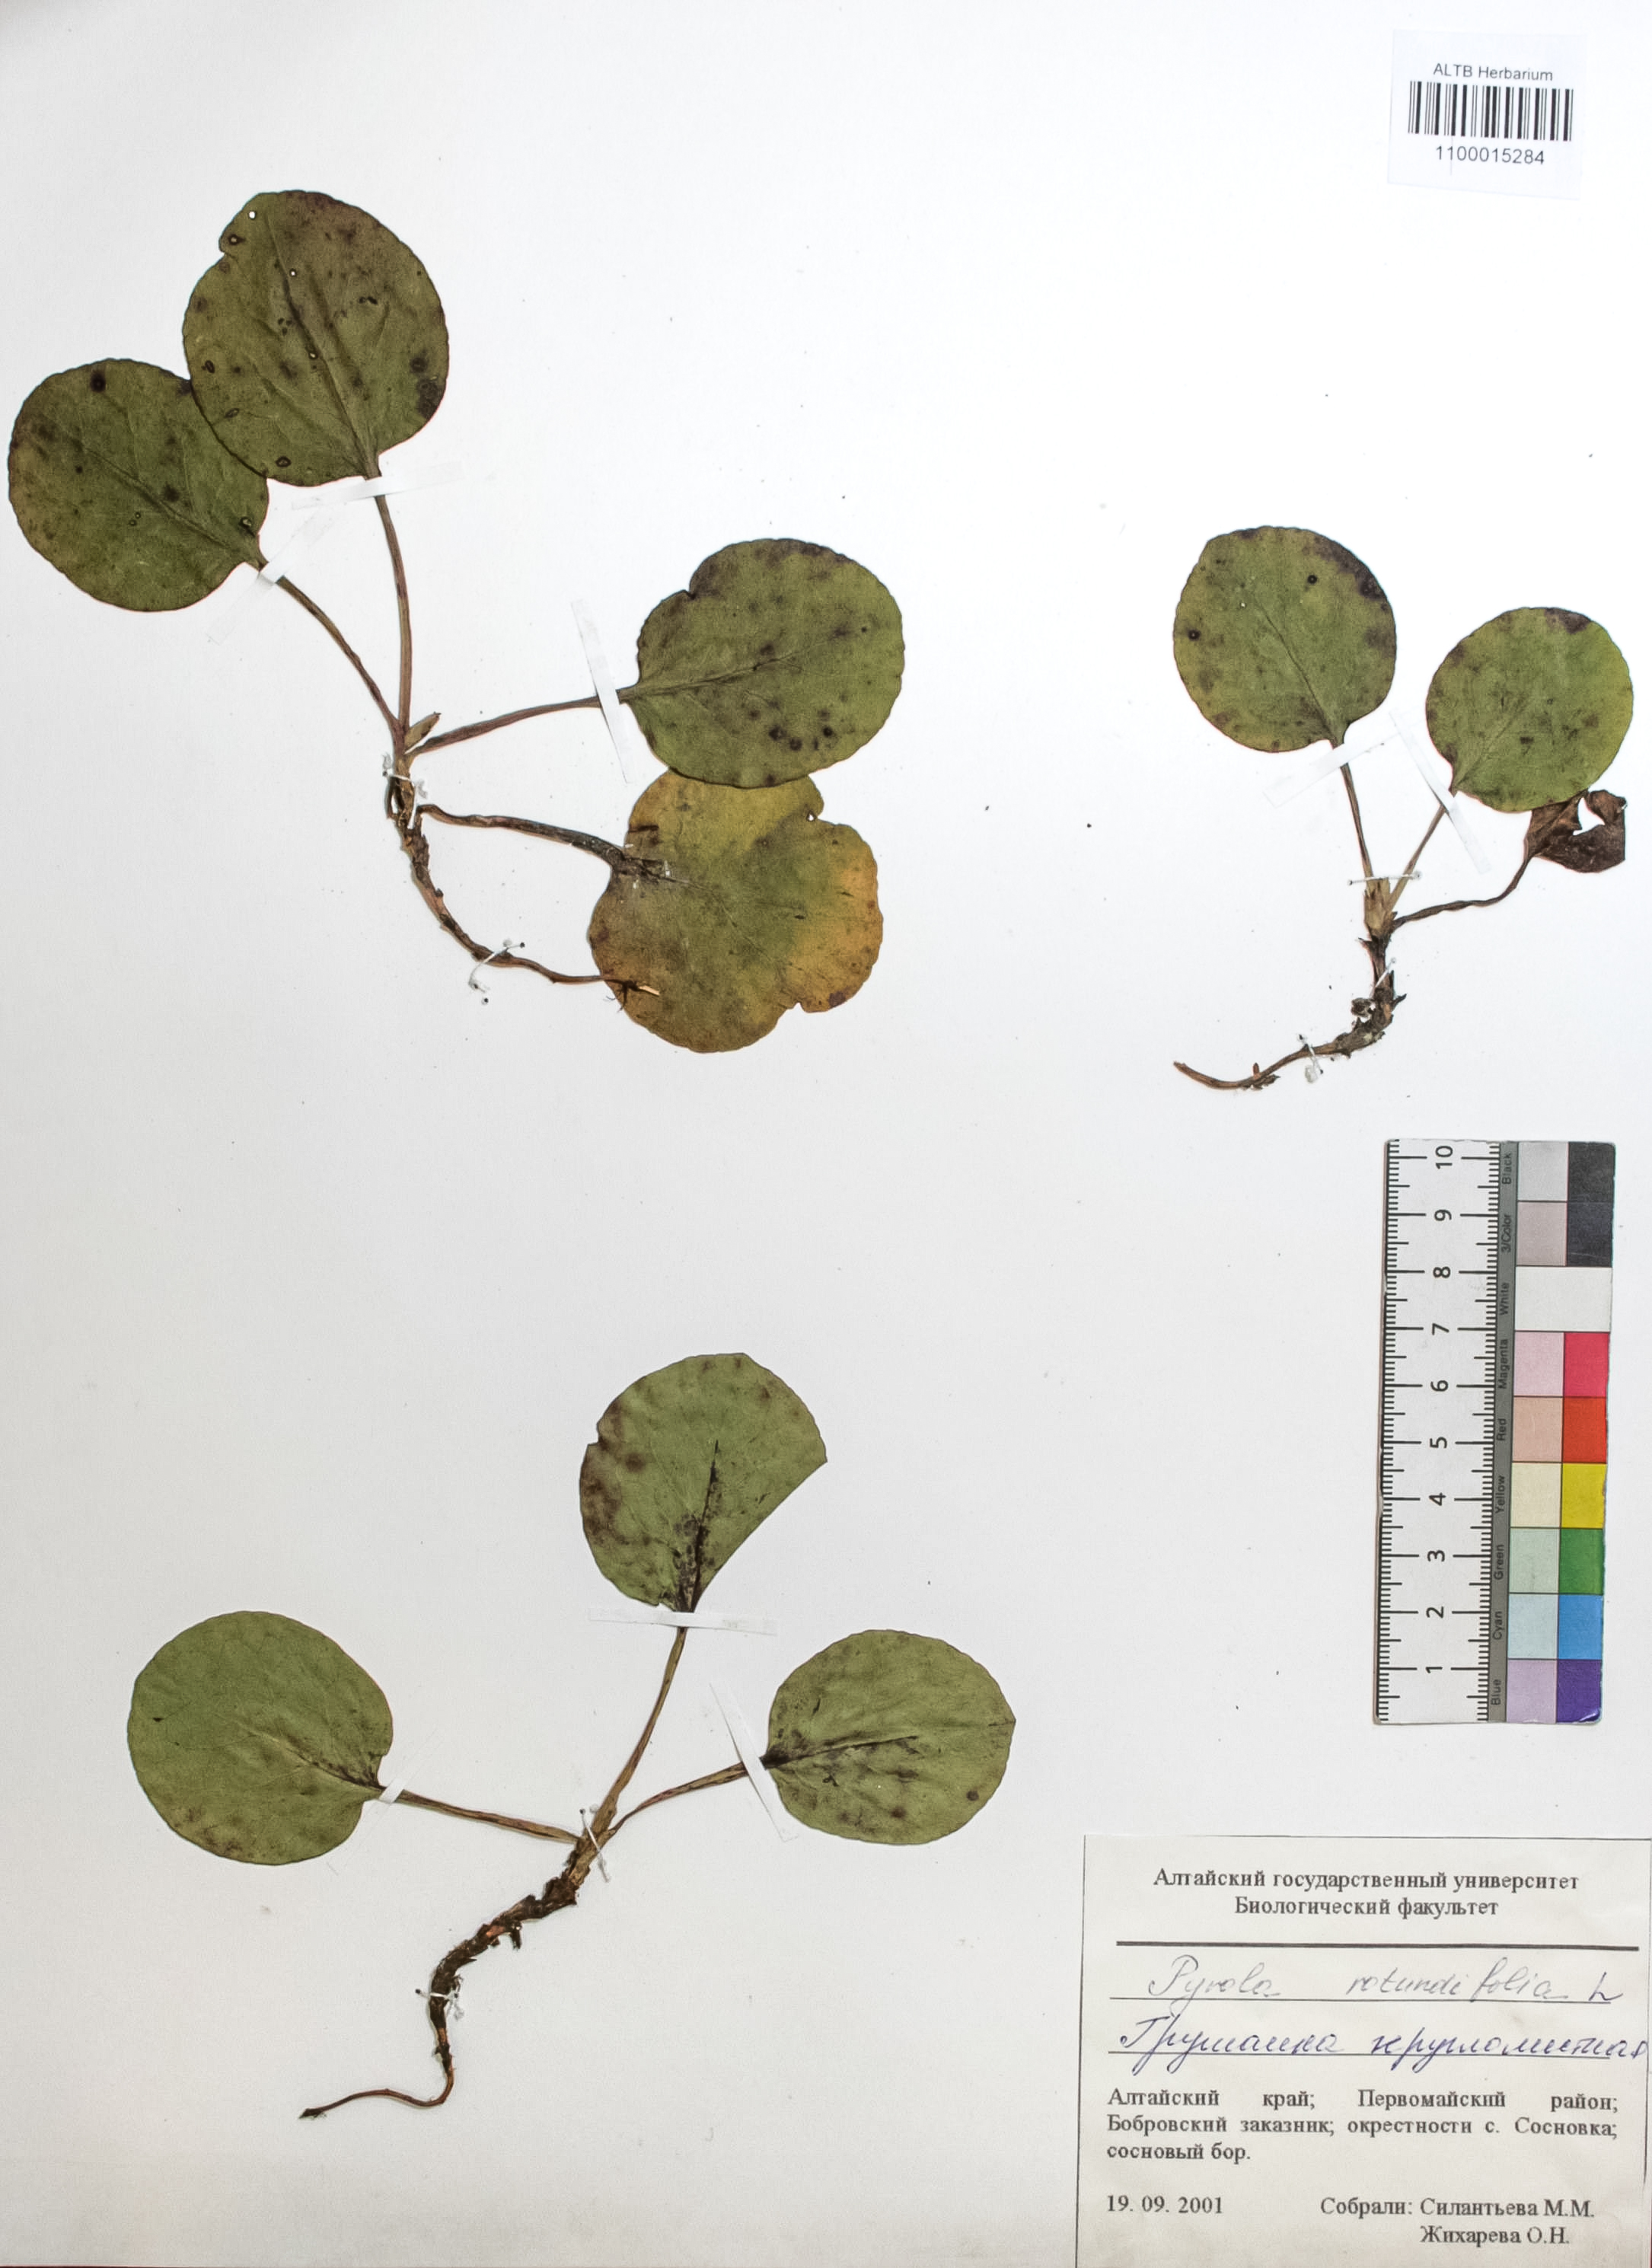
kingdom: Plantae
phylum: Tracheophyta
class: Magnoliopsida
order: Ericales
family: Ericaceae
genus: Pyrola
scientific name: Pyrola rotundifolia
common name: Round-leaved wintergreen
